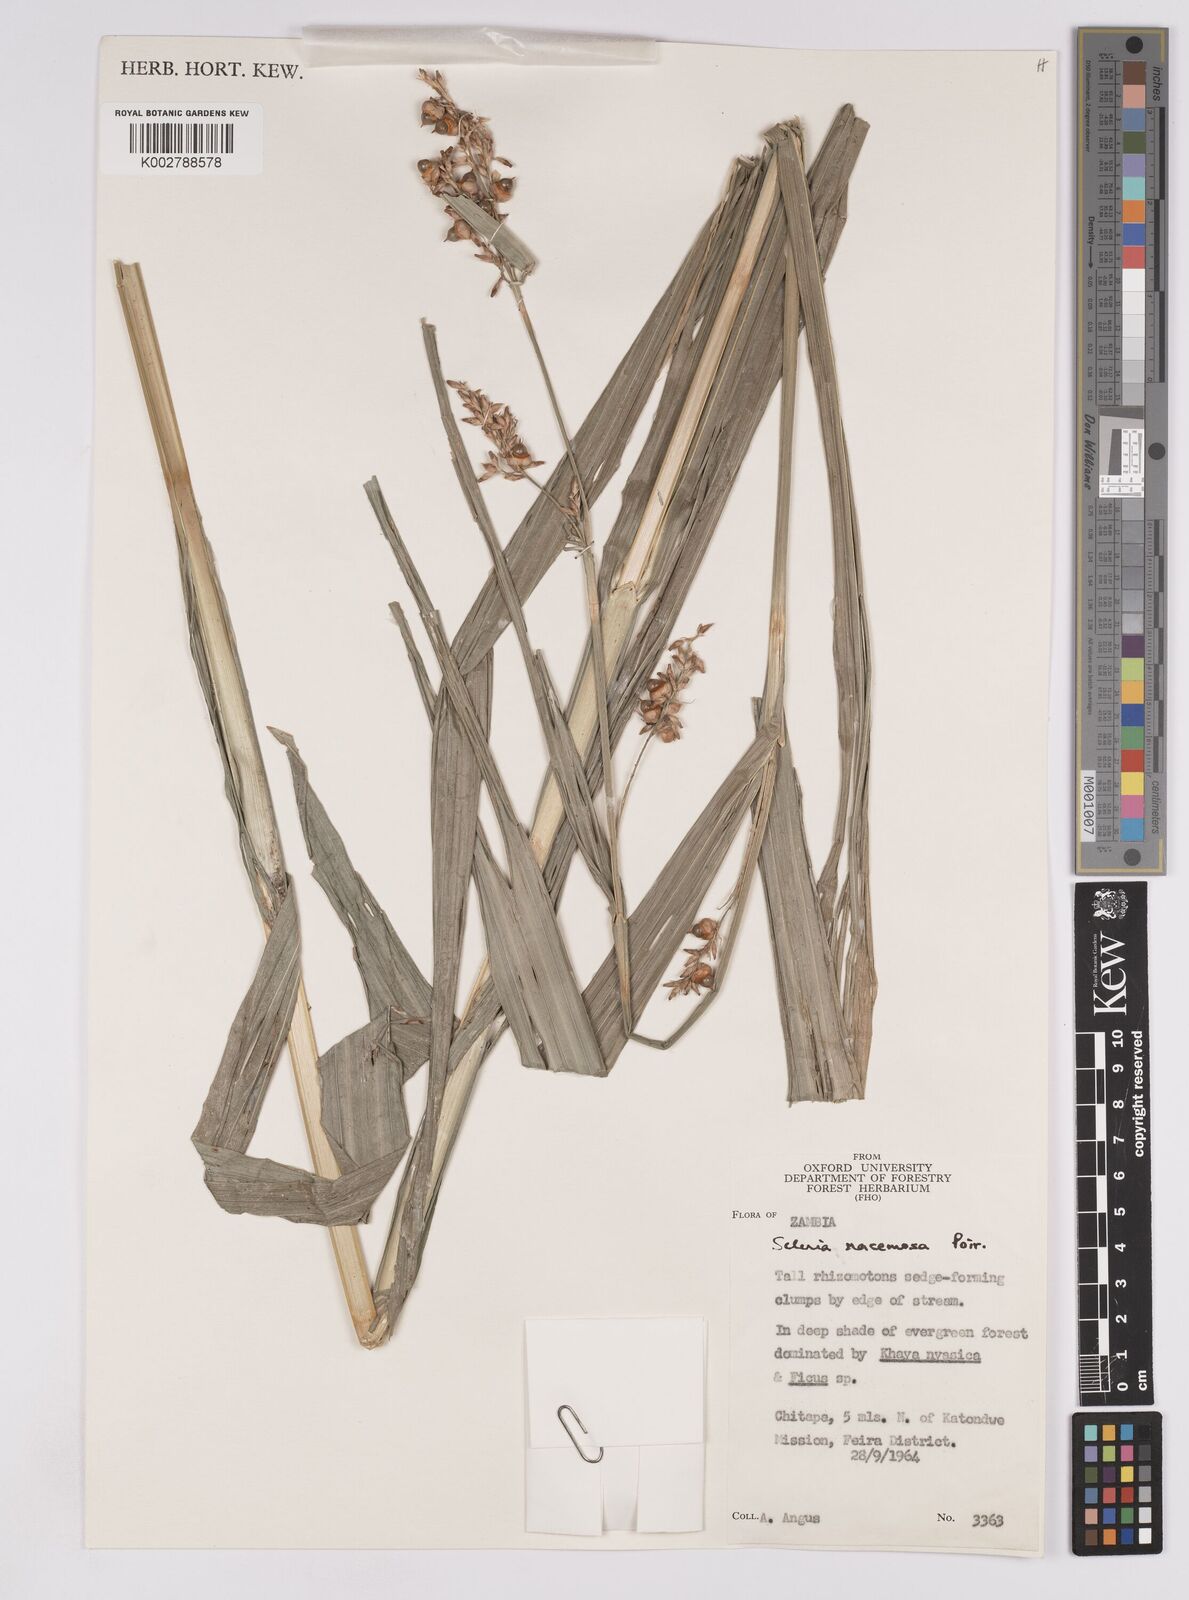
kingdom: Plantae
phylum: Tracheophyta
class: Liliopsida
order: Poales
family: Cyperaceae
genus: Scleria
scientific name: Scleria racemosa
